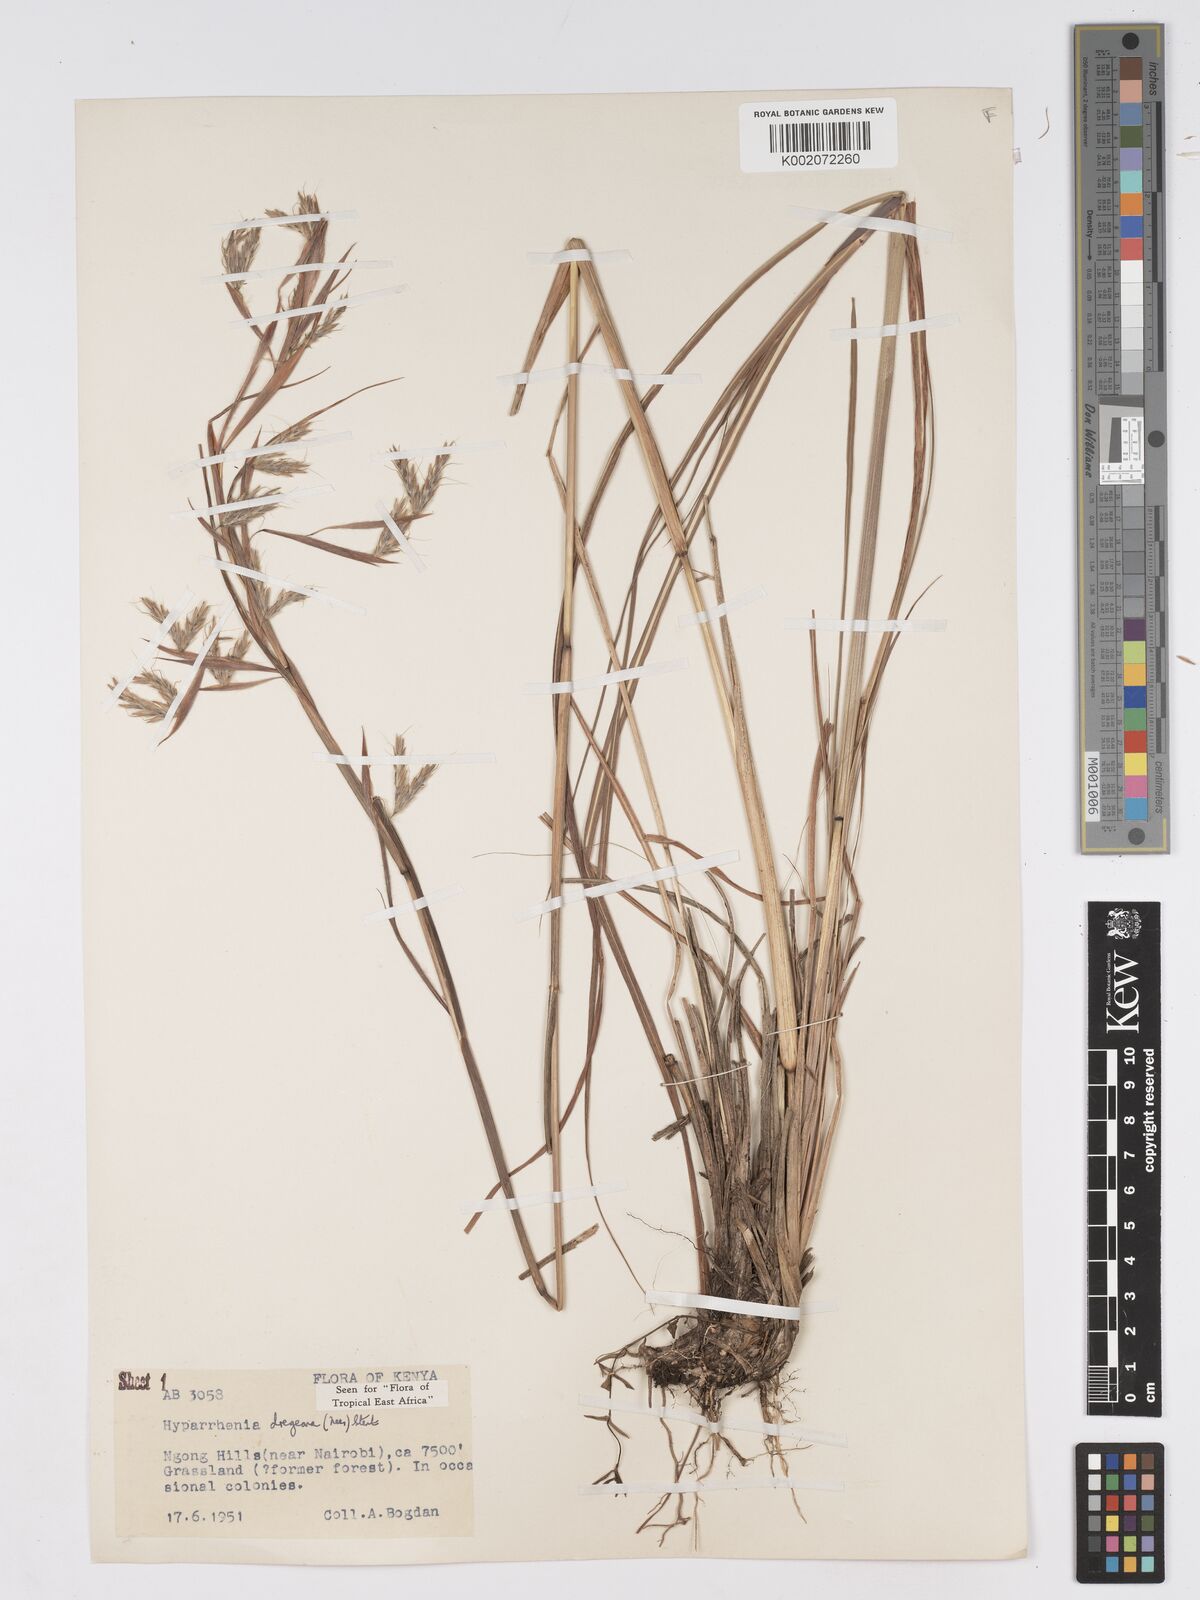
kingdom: Plantae
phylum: Tracheophyta
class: Liliopsida
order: Poales
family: Poaceae
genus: Hyparrhenia
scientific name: Hyparrhenia dregeana
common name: Silky thatching grass
